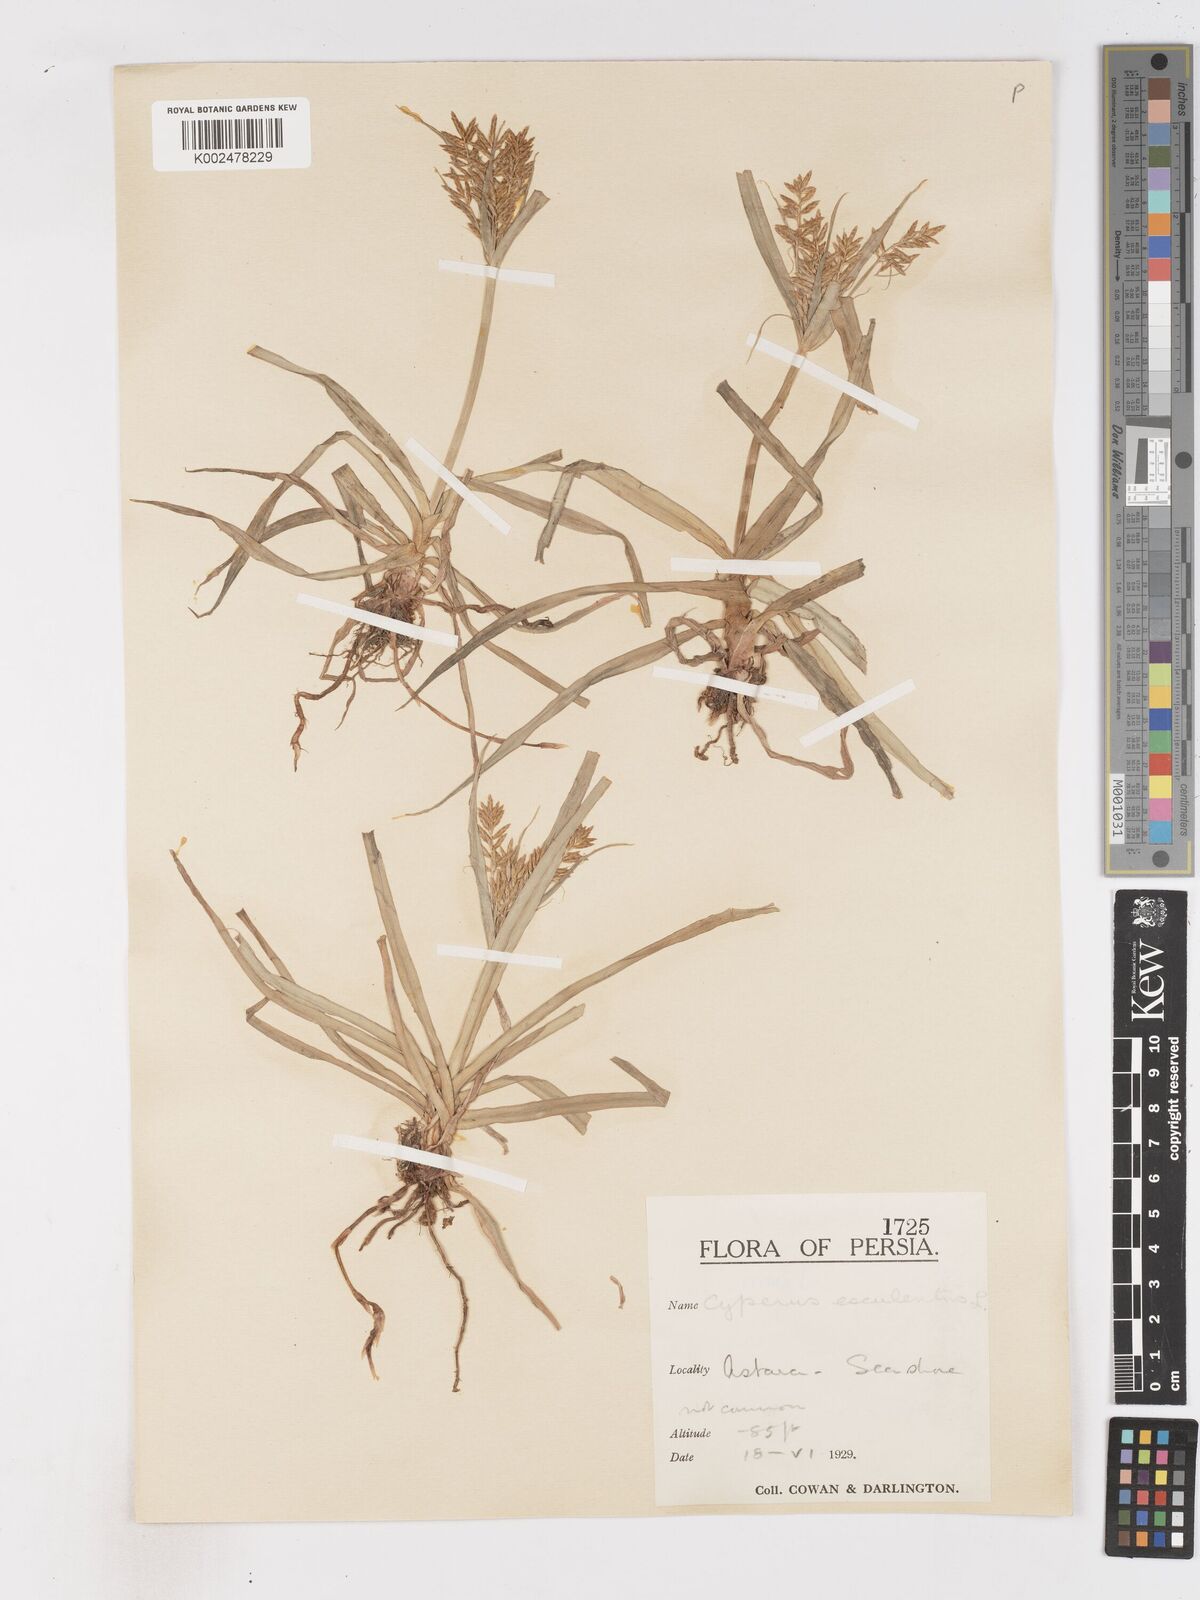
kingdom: Plantae
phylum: Tracheophyta
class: Liliopsida
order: Poales
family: Cyperaceae
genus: Cyperus
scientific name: Cyperus esculentus
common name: Yellow nutsedge
